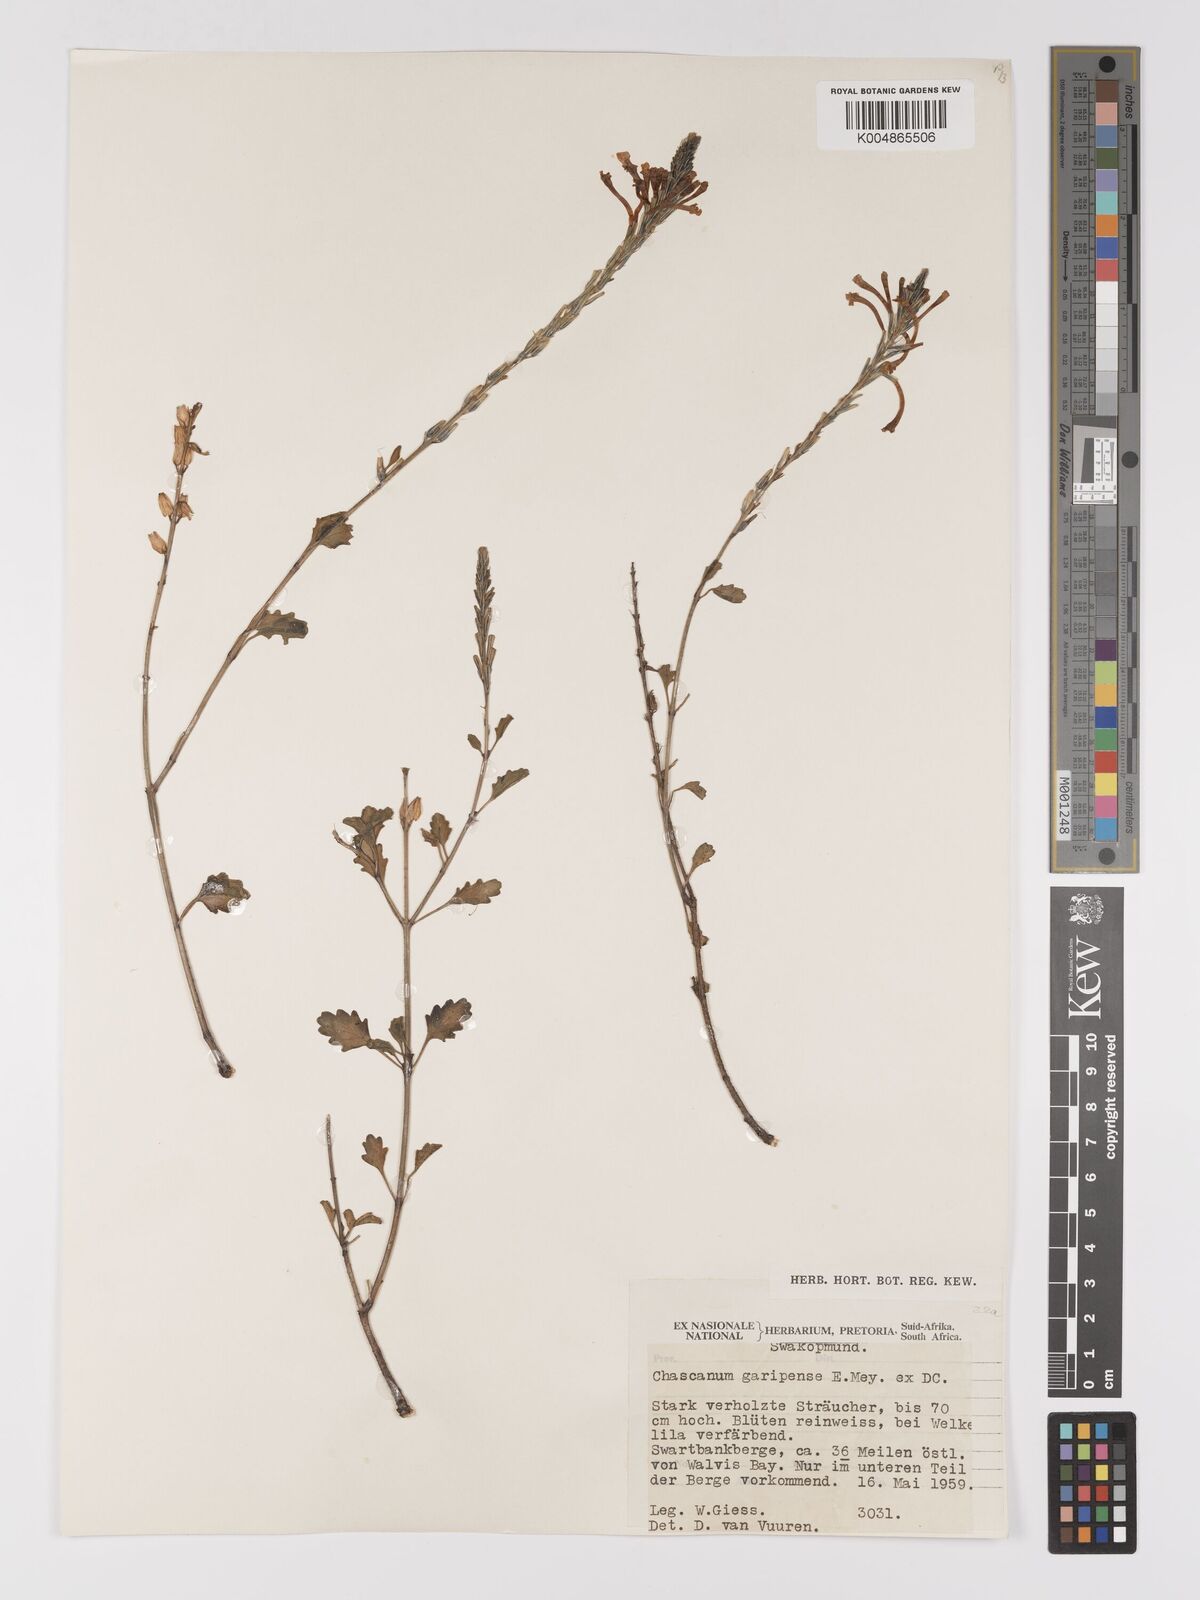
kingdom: Plantae
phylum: Tracheophyta
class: Magnoliopsida
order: Lamiales
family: Verbenaceae
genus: Chascanum
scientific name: Chascanum garipense
